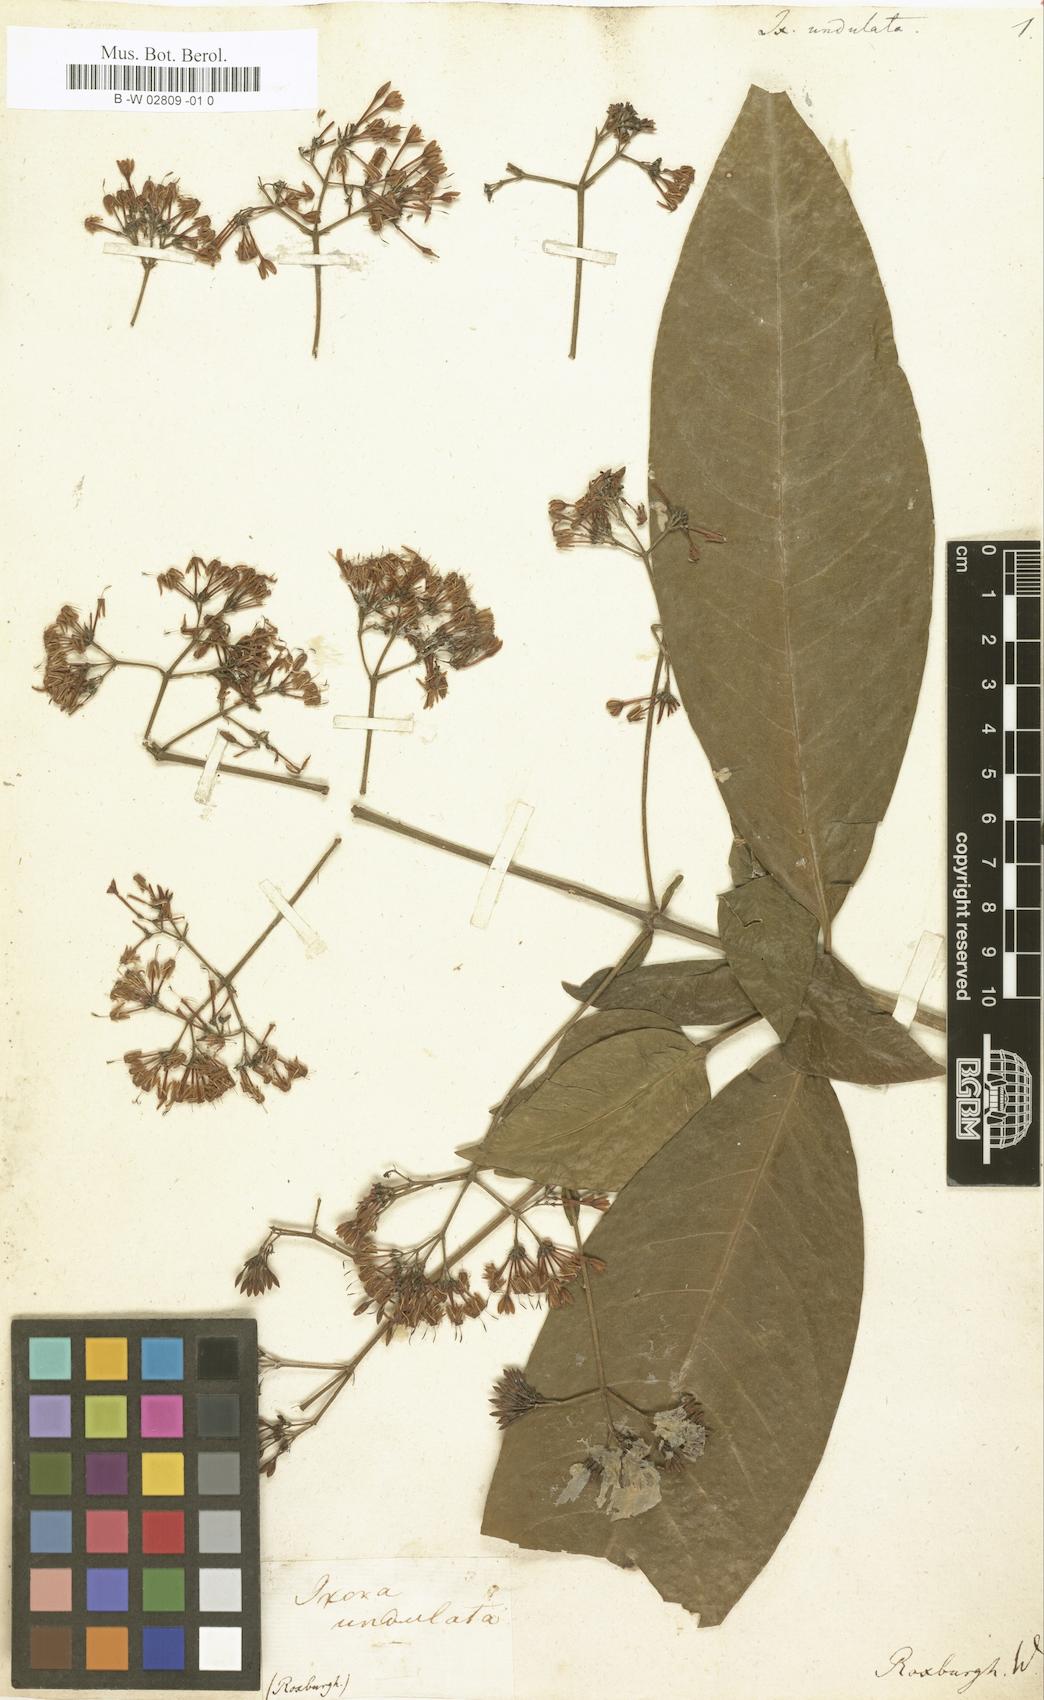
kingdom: Plantae
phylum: Tracheophyta
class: Magnoliopsida
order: Gentianales
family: Rubiaceae
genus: Ixora
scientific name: Ixora undulata
